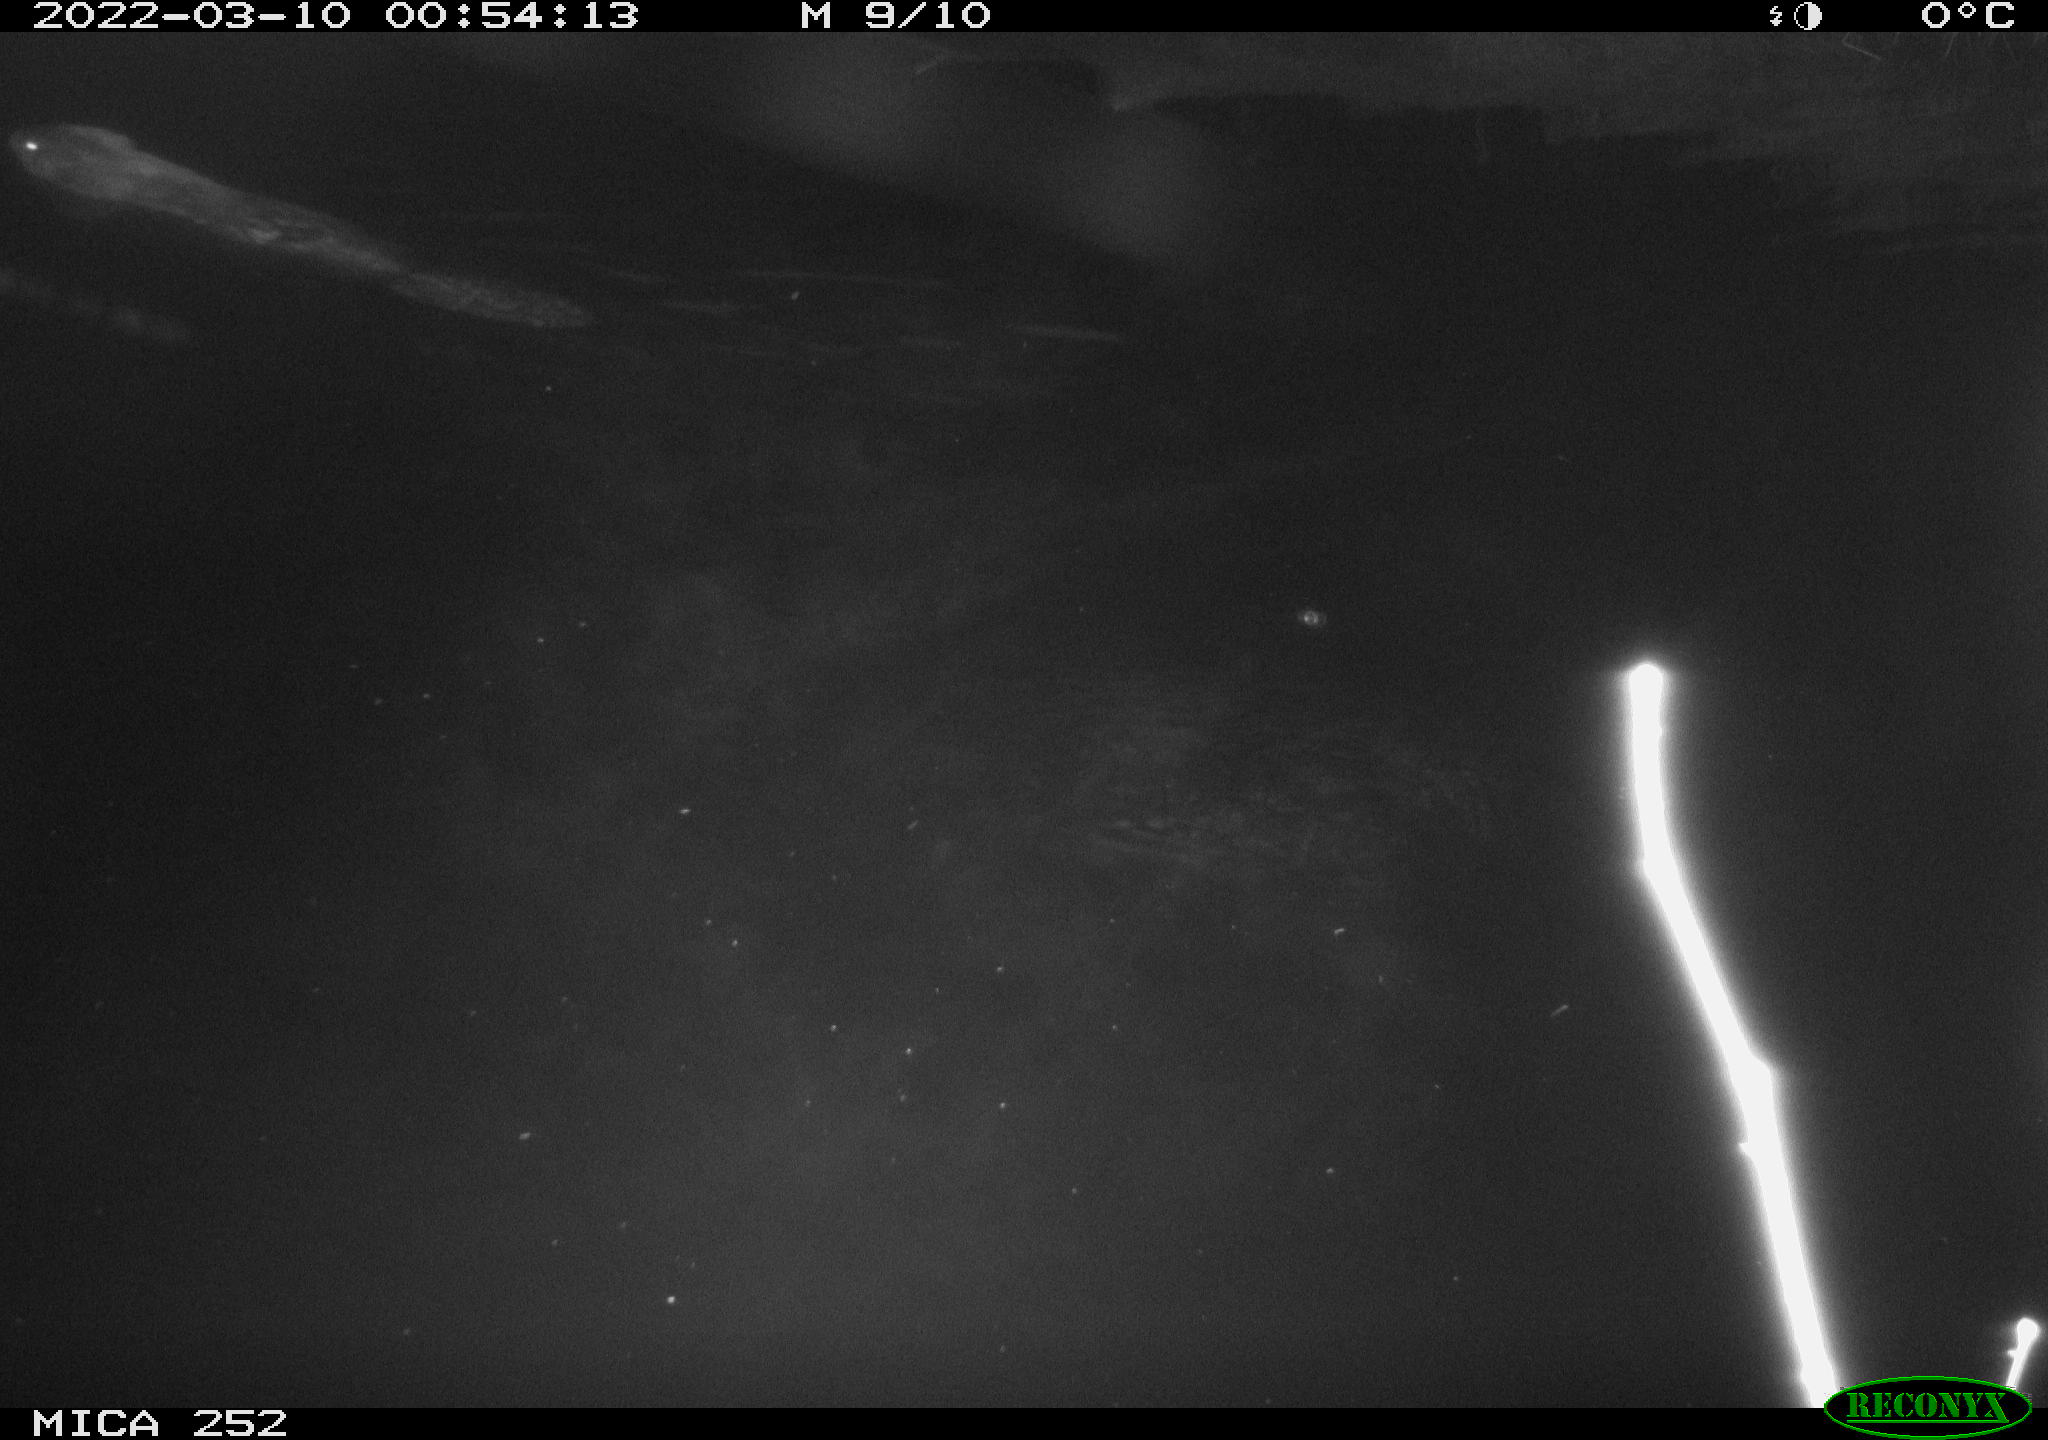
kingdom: Animalia
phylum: Chordata
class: Mammalia
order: Rodentia
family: Castoridae
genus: Castor
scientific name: Castor fiber
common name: Eurasian beaver
